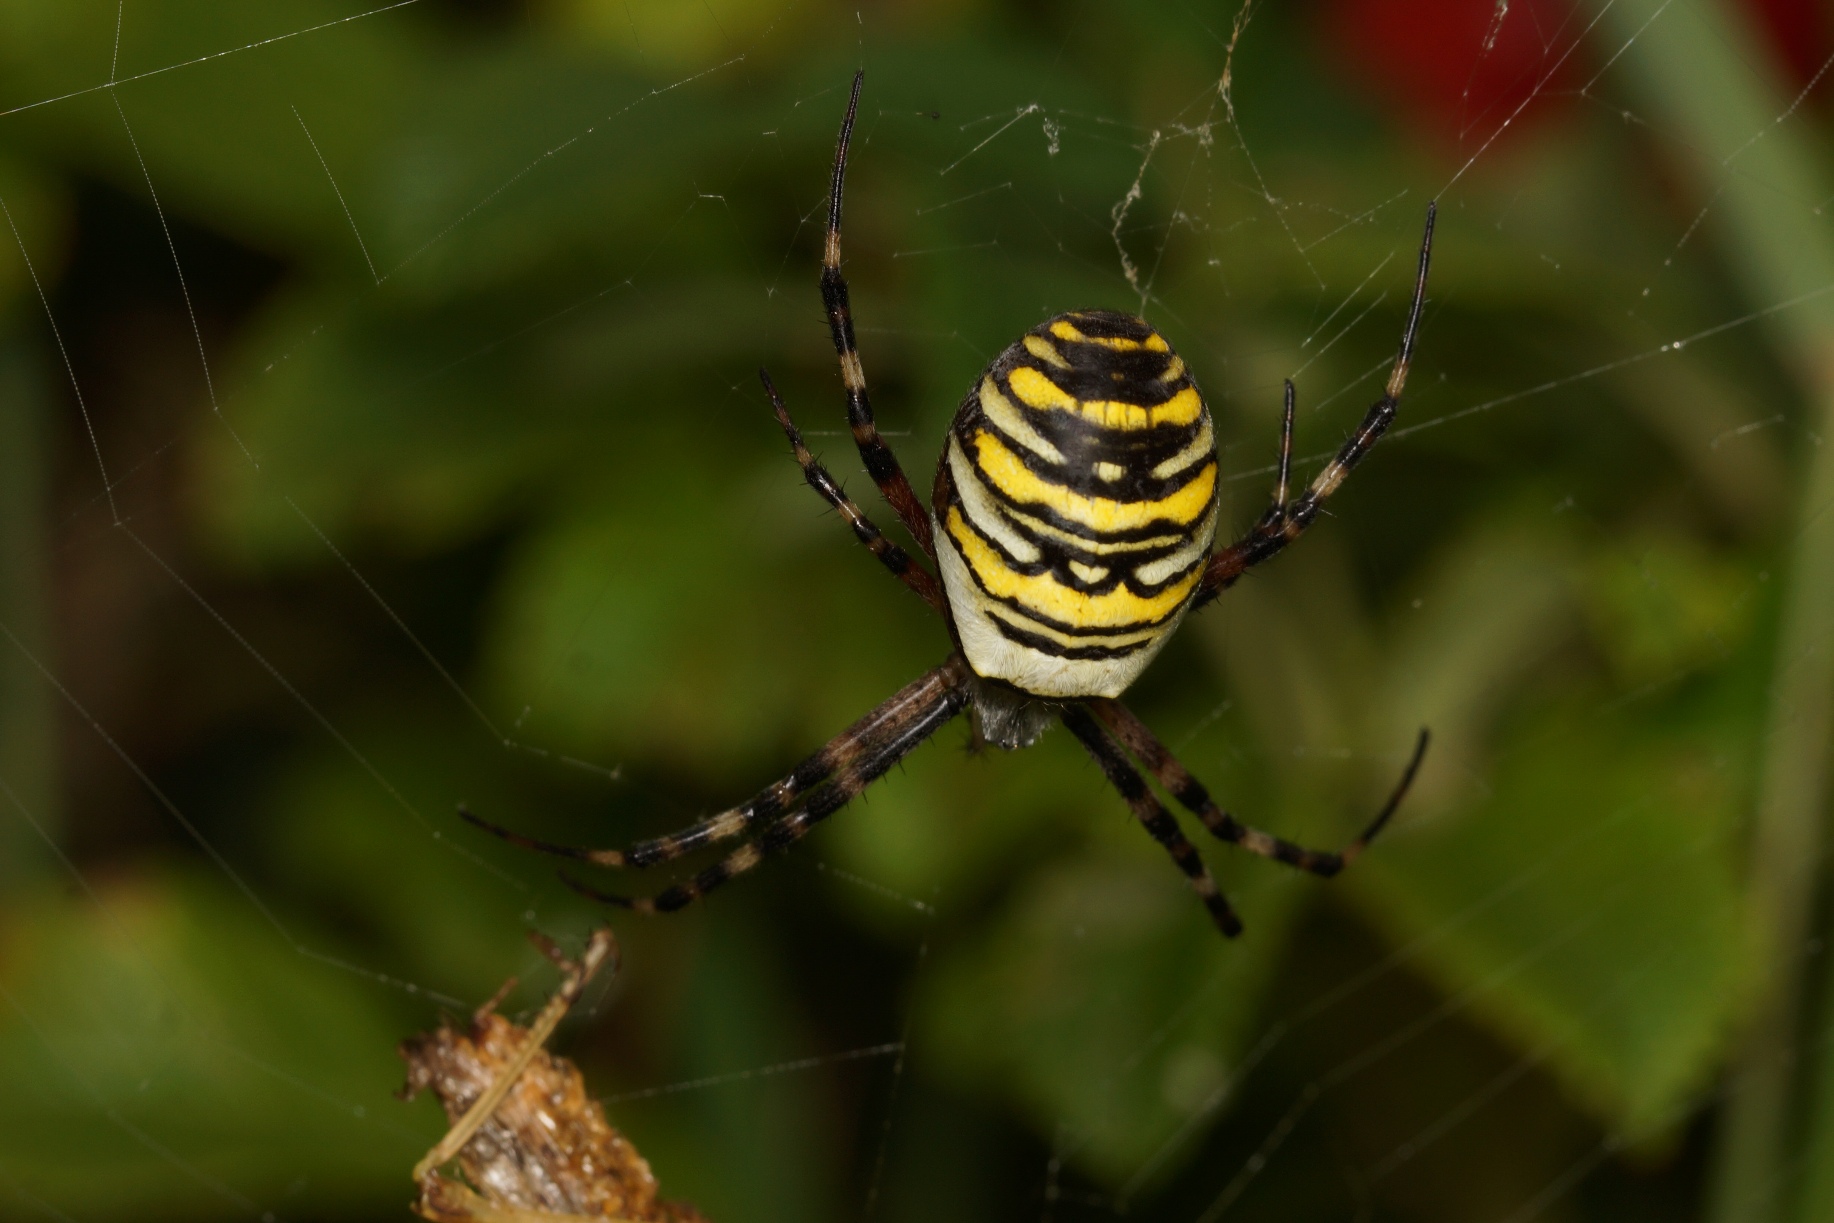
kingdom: Animalia
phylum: Arthropoda
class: Arachnida
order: Araneae
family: Araneidae
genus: Argiope
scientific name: Argiope bruennichi
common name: Hvepseedderkop
